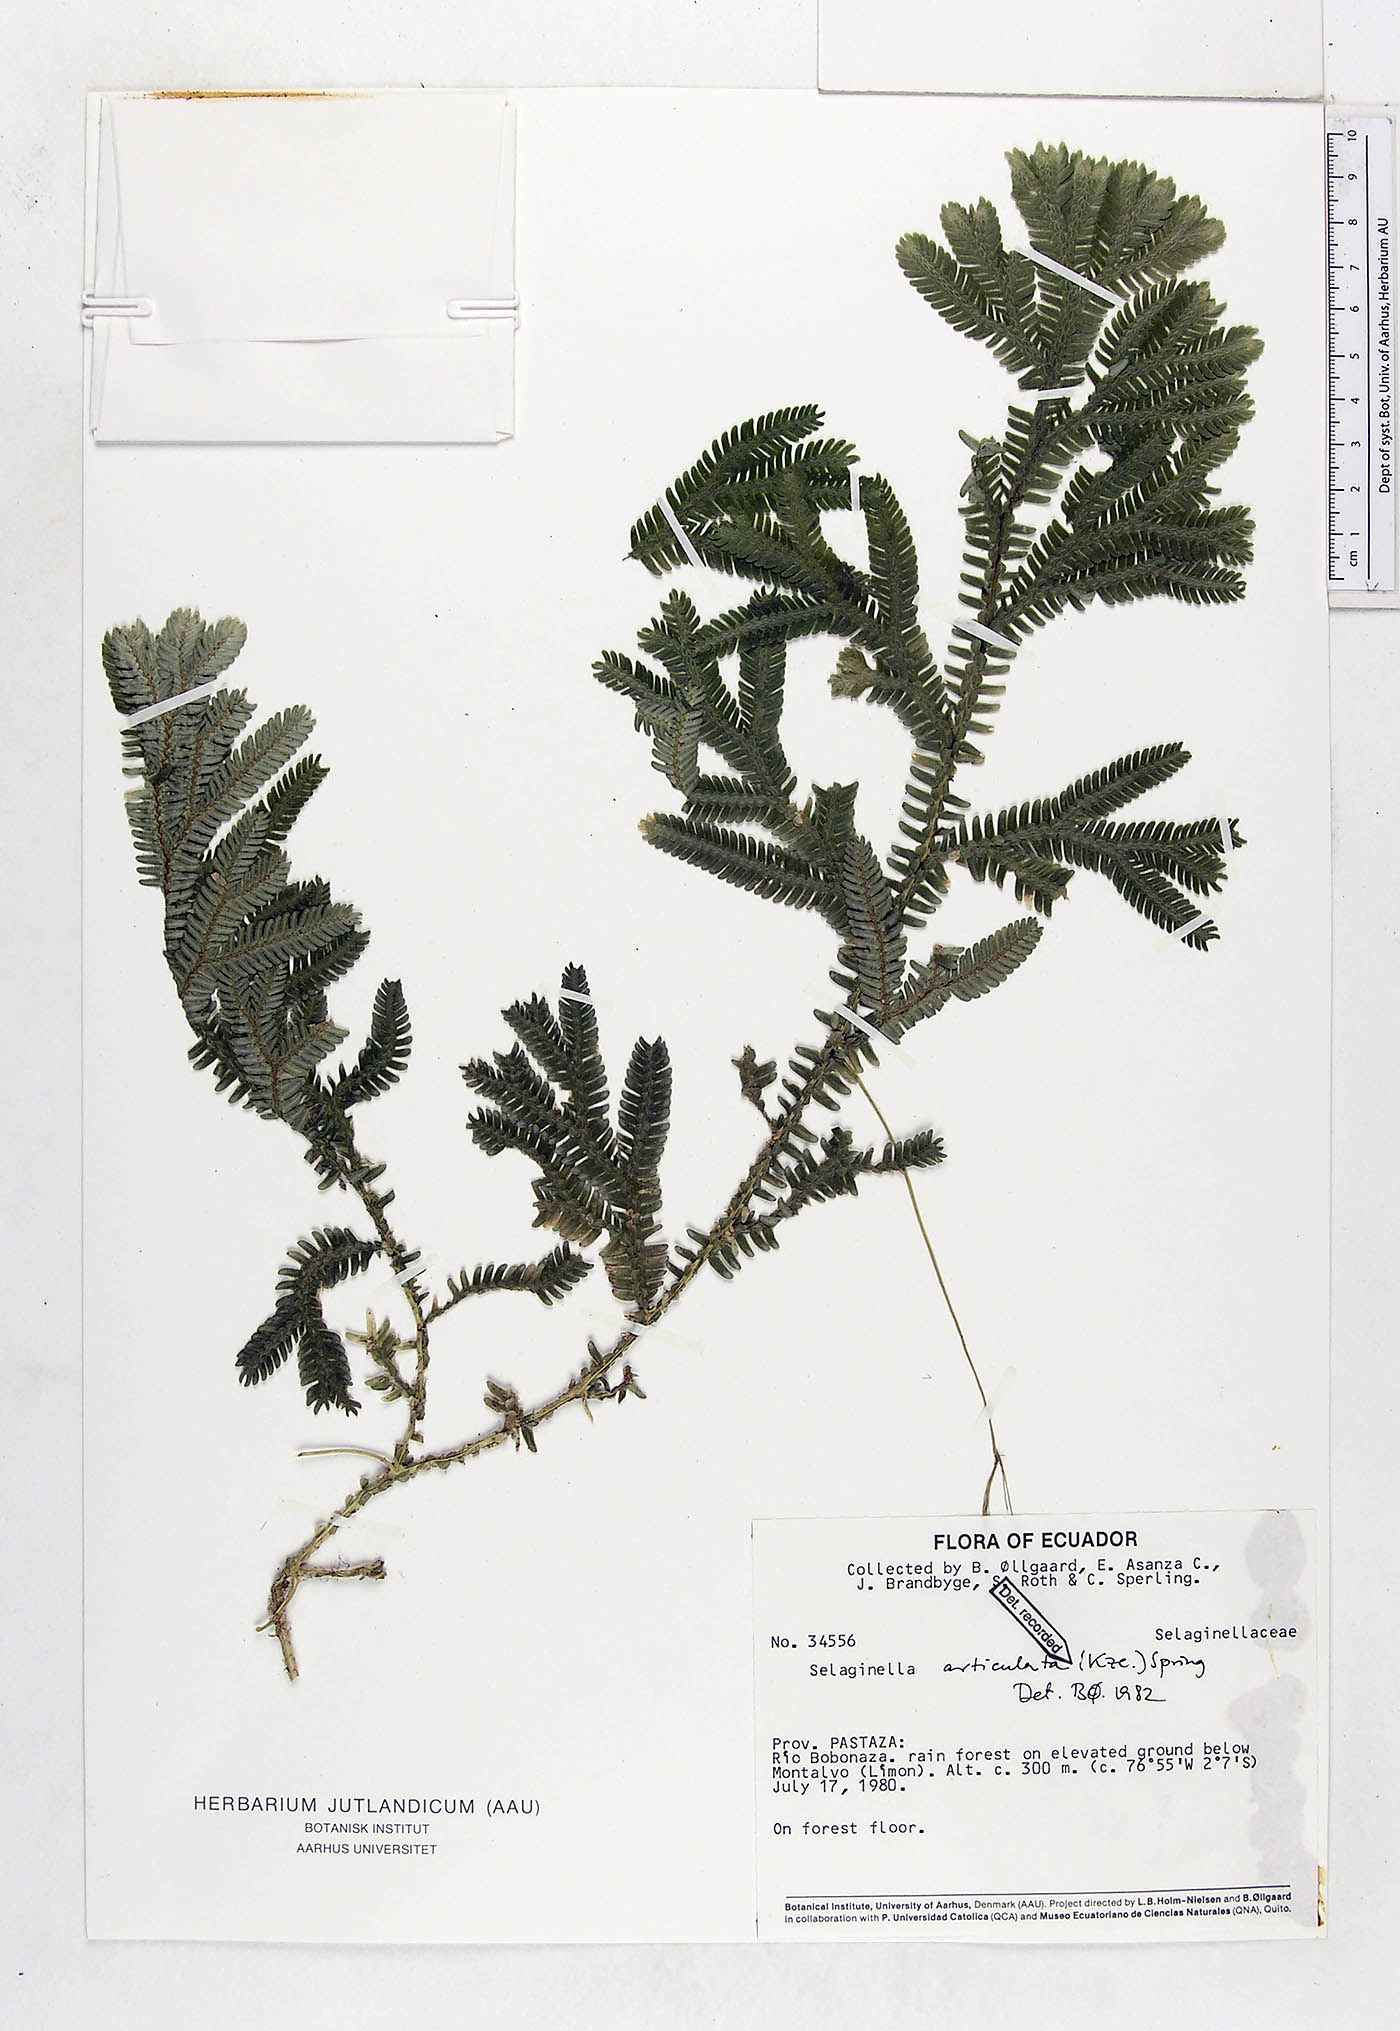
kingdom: Plantae
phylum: Tracheophyta
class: Lycopodiopsida
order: Selaginellales
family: Selaginellaceae
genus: Selaginella
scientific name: Selaginella articulata
